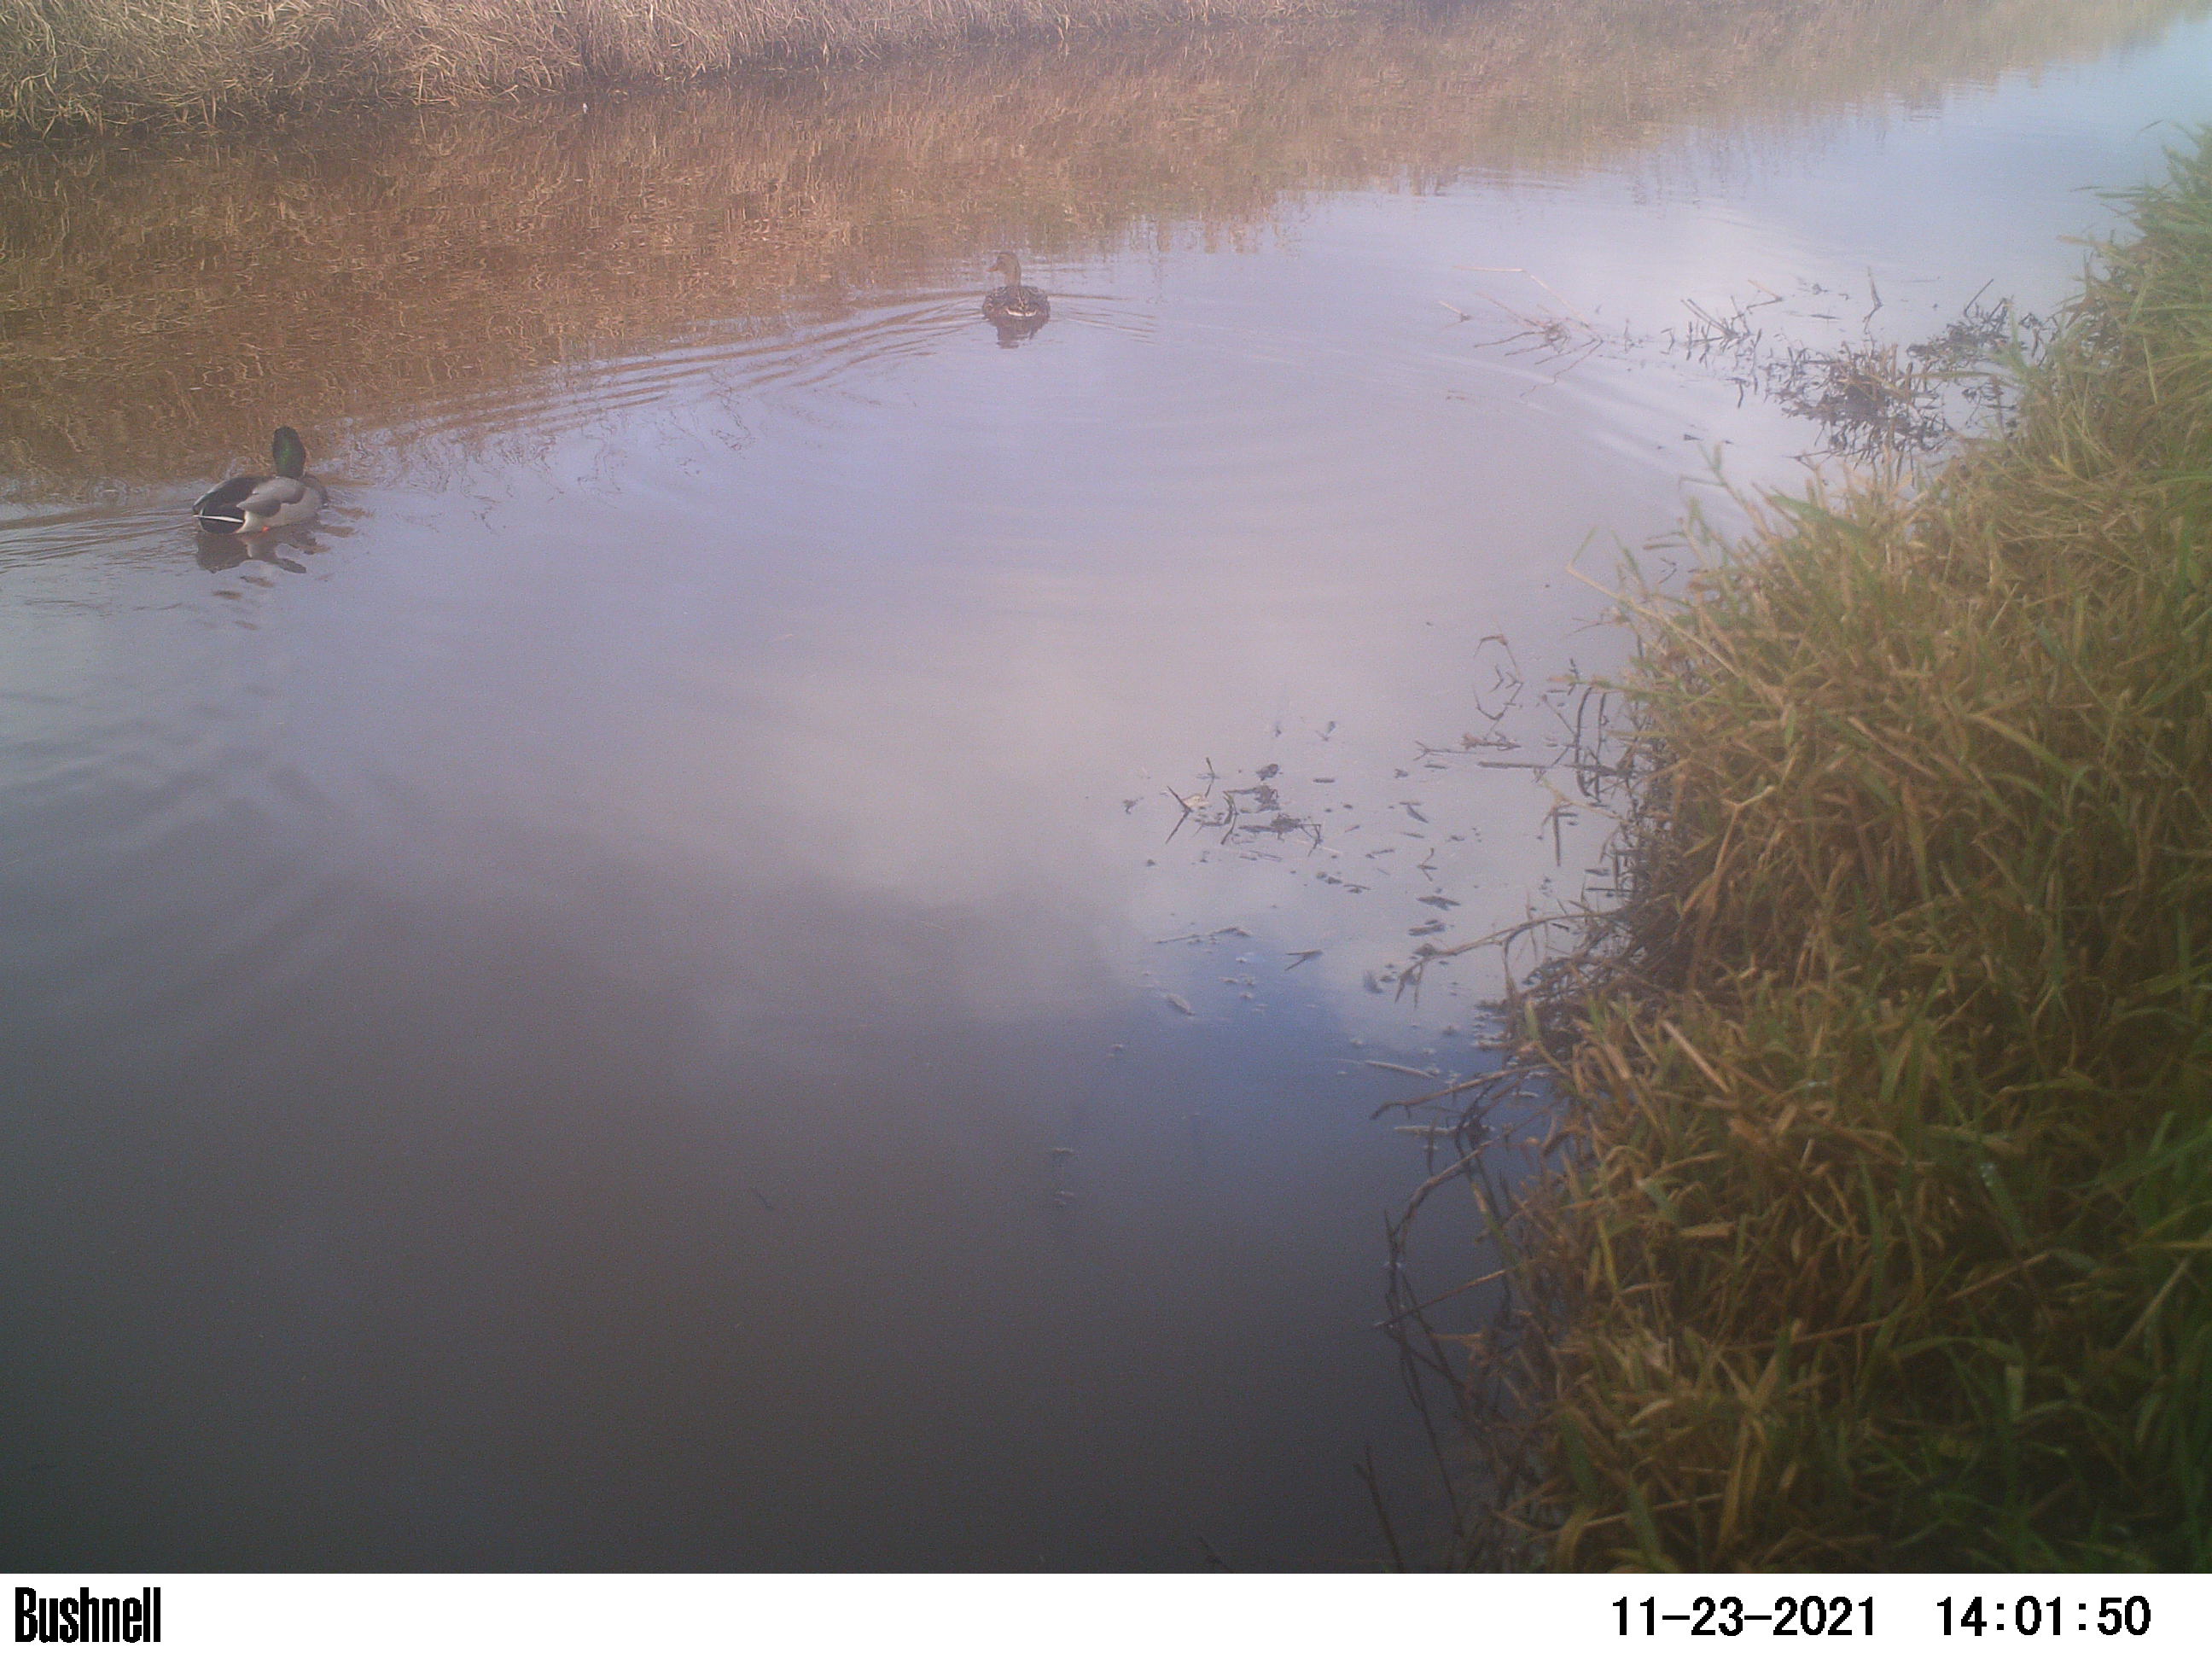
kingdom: Animalia
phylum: Chordata
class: Aves
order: Anseriformes
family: Anatidae
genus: Anas
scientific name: Anas
